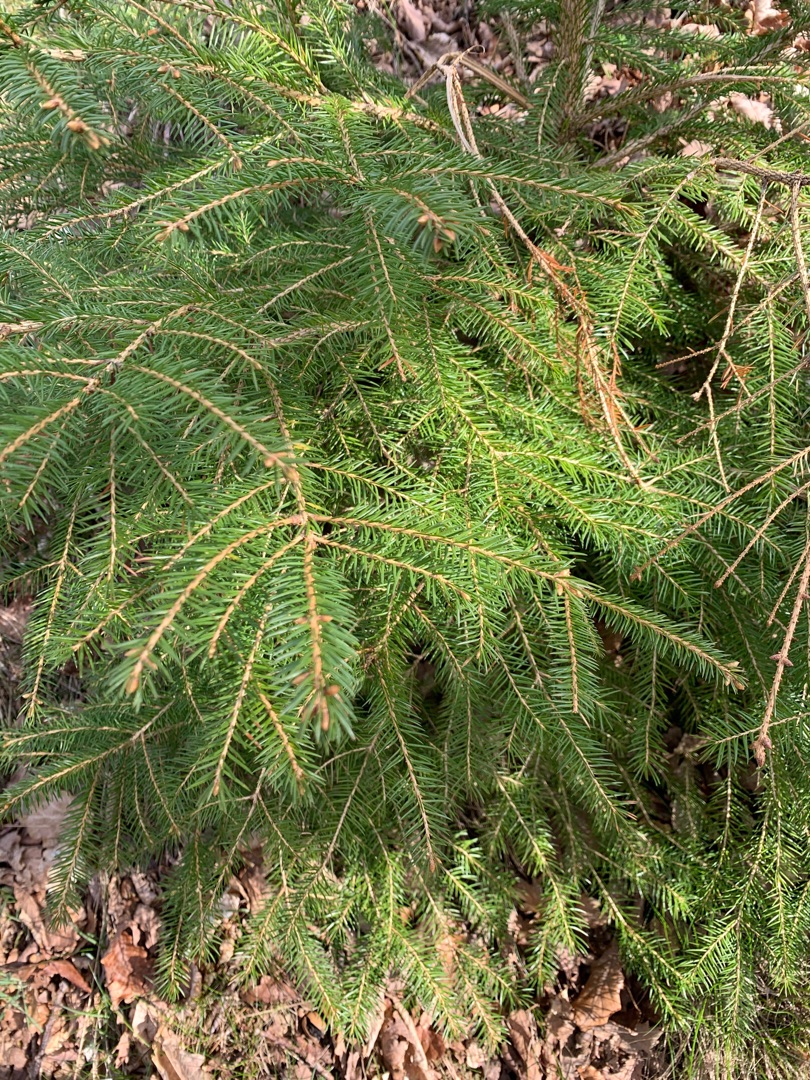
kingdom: Plantae
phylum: Tracheophyta
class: Pinopsida
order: Pinales
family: Pinaceae
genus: Picea
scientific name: Picea abies
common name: Rød-gran
